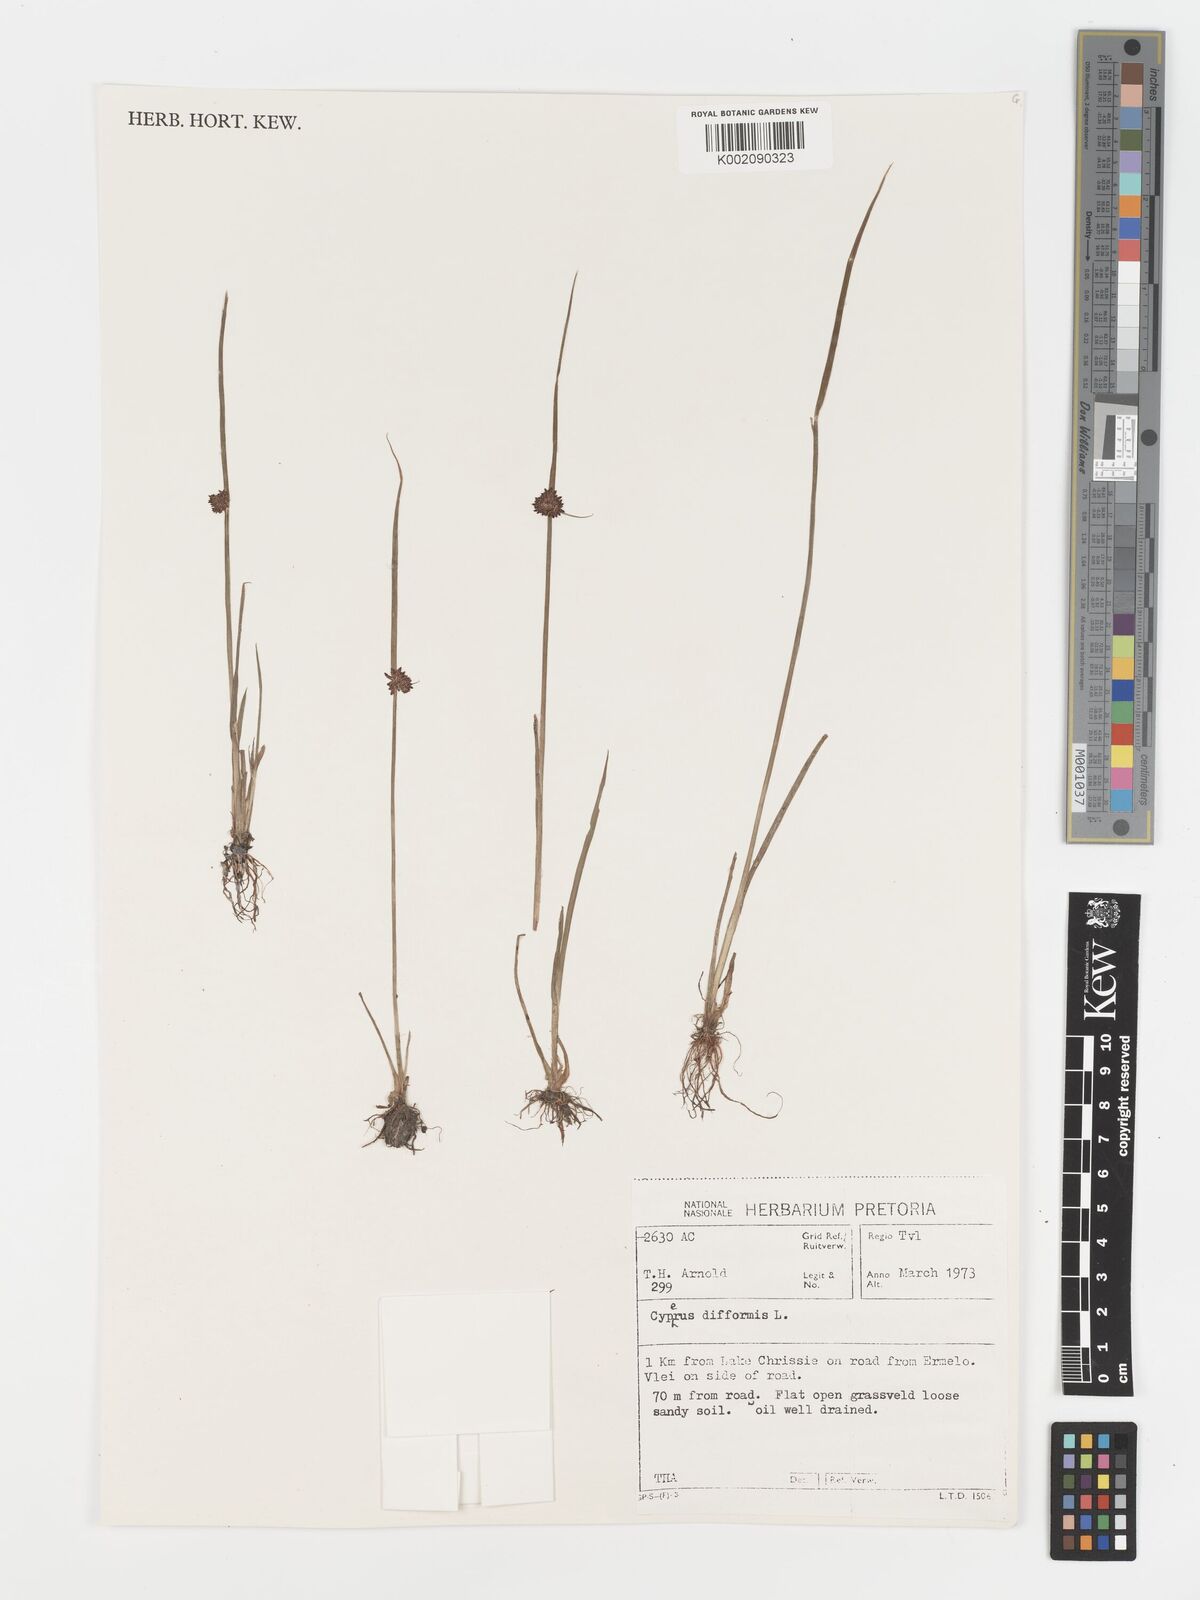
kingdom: Plantae
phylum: Tracheophyta
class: Liliopsida
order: Poales
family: Cyperaceae
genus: Cyperus
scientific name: Cyperus difformis
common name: Variable flatsedge
